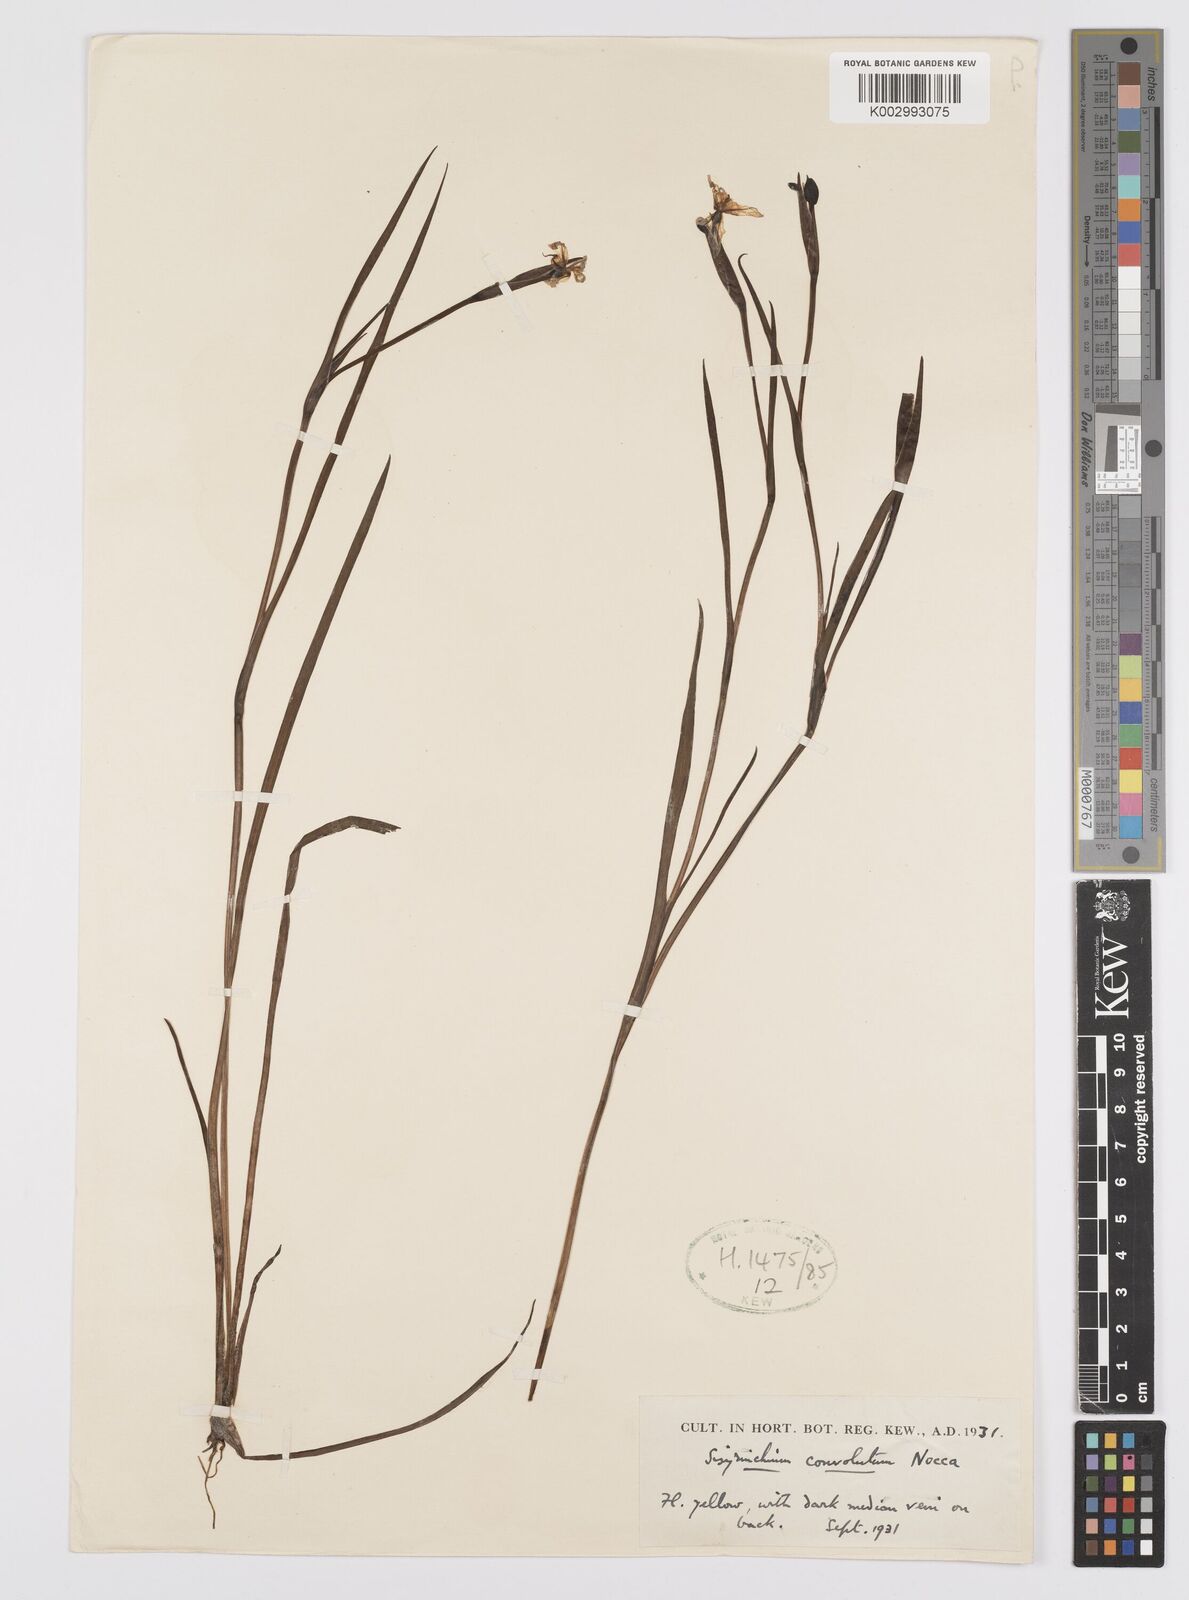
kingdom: Plantae
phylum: Tracheophyta
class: Liliopsida
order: Asparagales
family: Iridaceae
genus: Sisyrinchium
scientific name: Sisyrinchium convolutum
